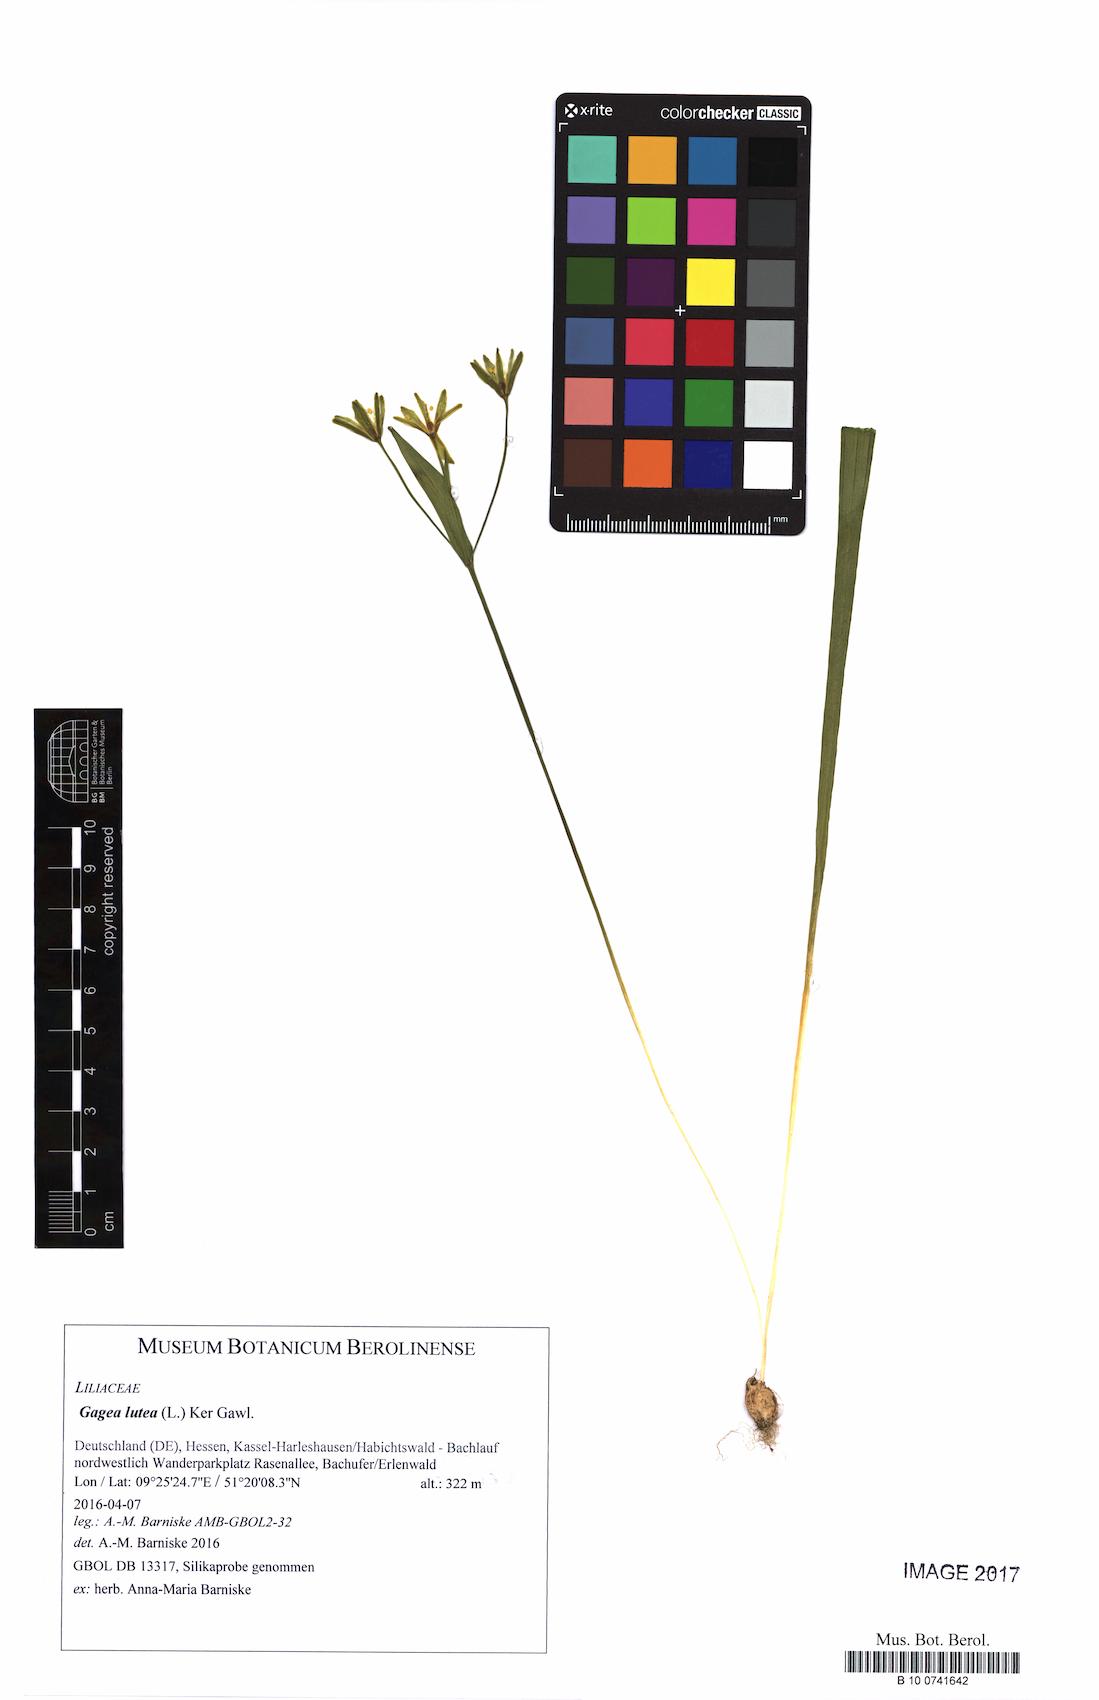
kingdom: Plantae
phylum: Tracheophyta
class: Liliopsida
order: Liliales
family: Liliaceae
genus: Gagea
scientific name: Gagea lutea
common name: Yellow star-of-bethlehem
